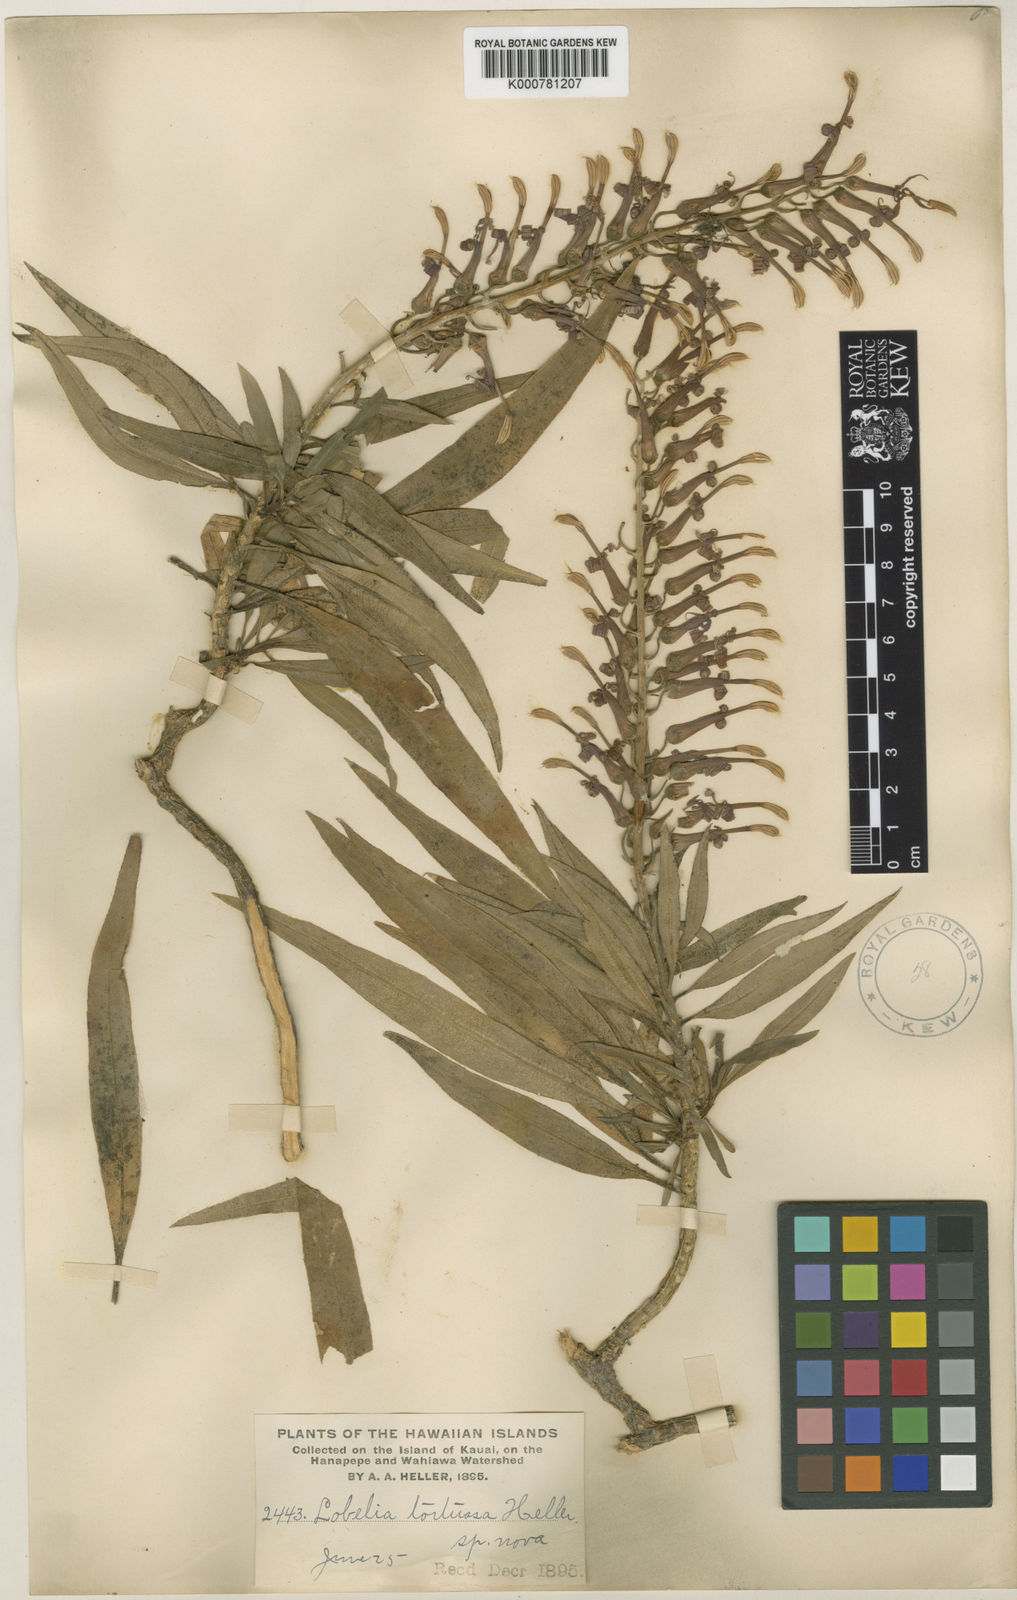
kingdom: Plantae
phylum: Tracheophyta
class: Magnoliopsida
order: Asterales
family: Campanulaceae
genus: Lobelia
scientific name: Lobelia niihauensis
